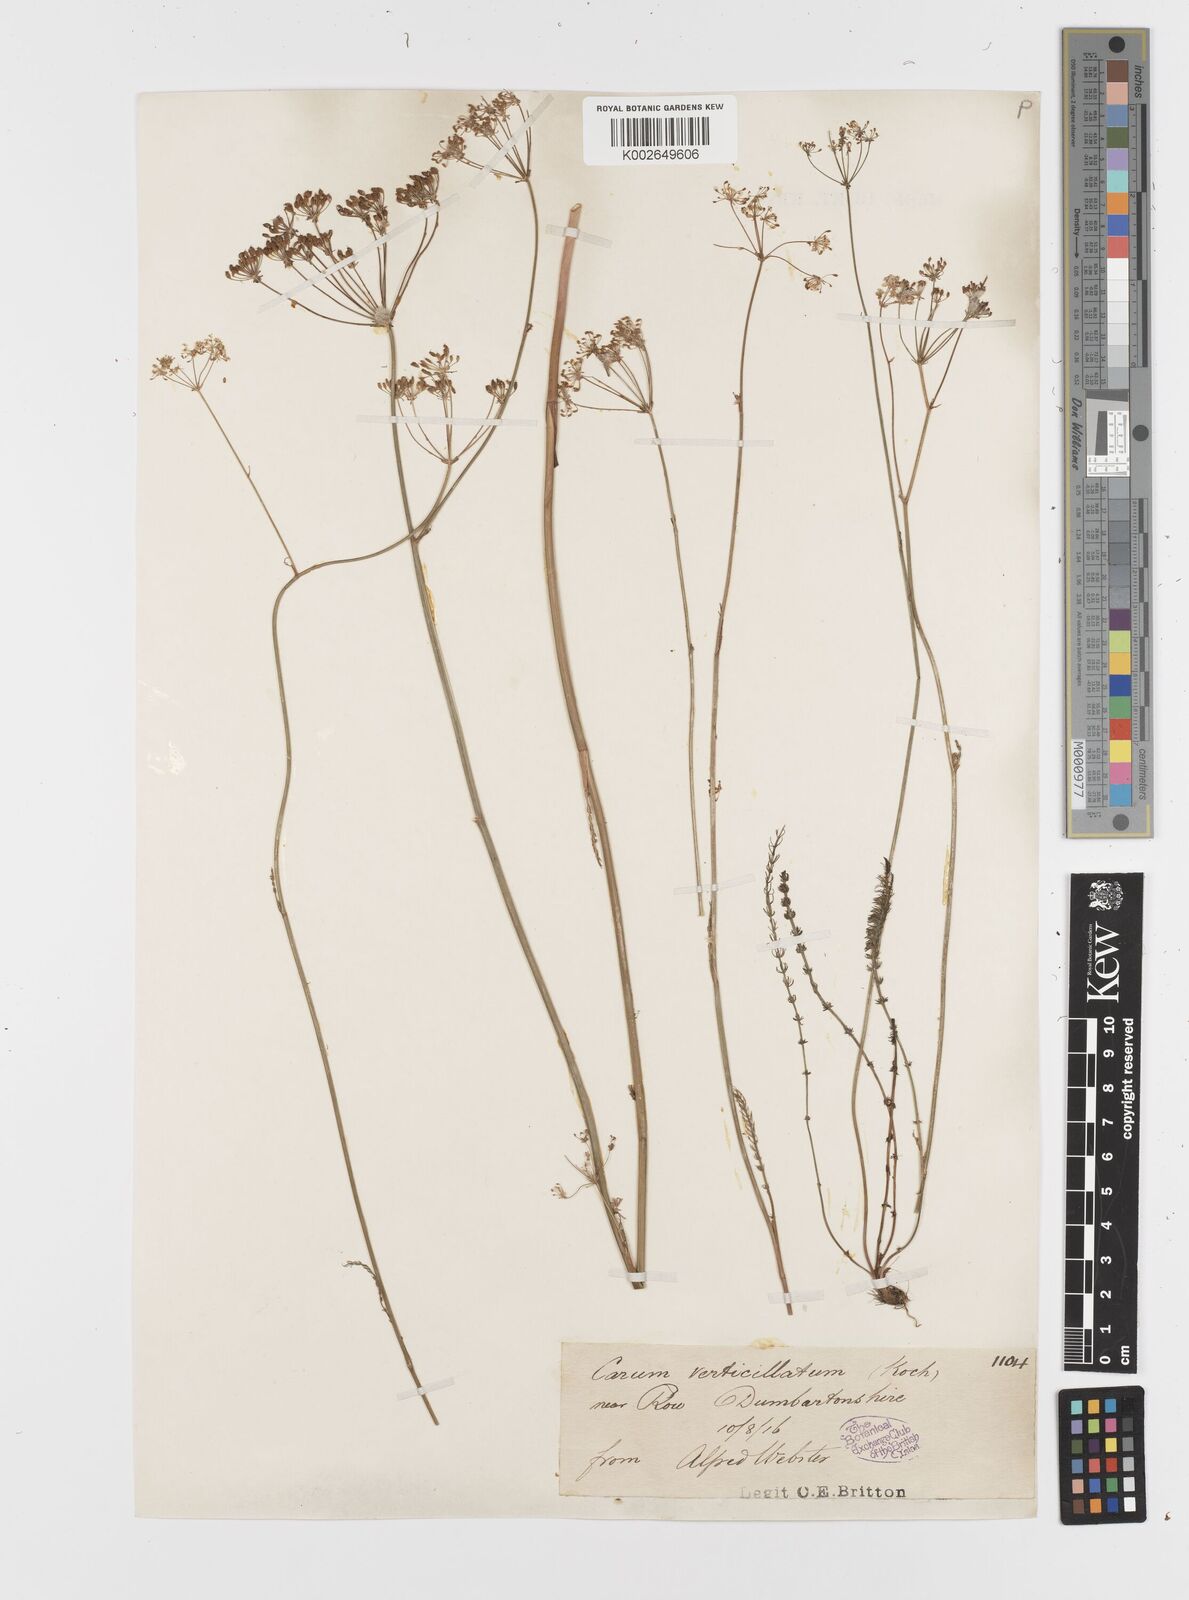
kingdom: Plantae
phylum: Tracheophyta
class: Magnoliopsida
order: Apiales
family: Apiaceae
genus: Trocdaris
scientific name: Trocdaris verticillatum
